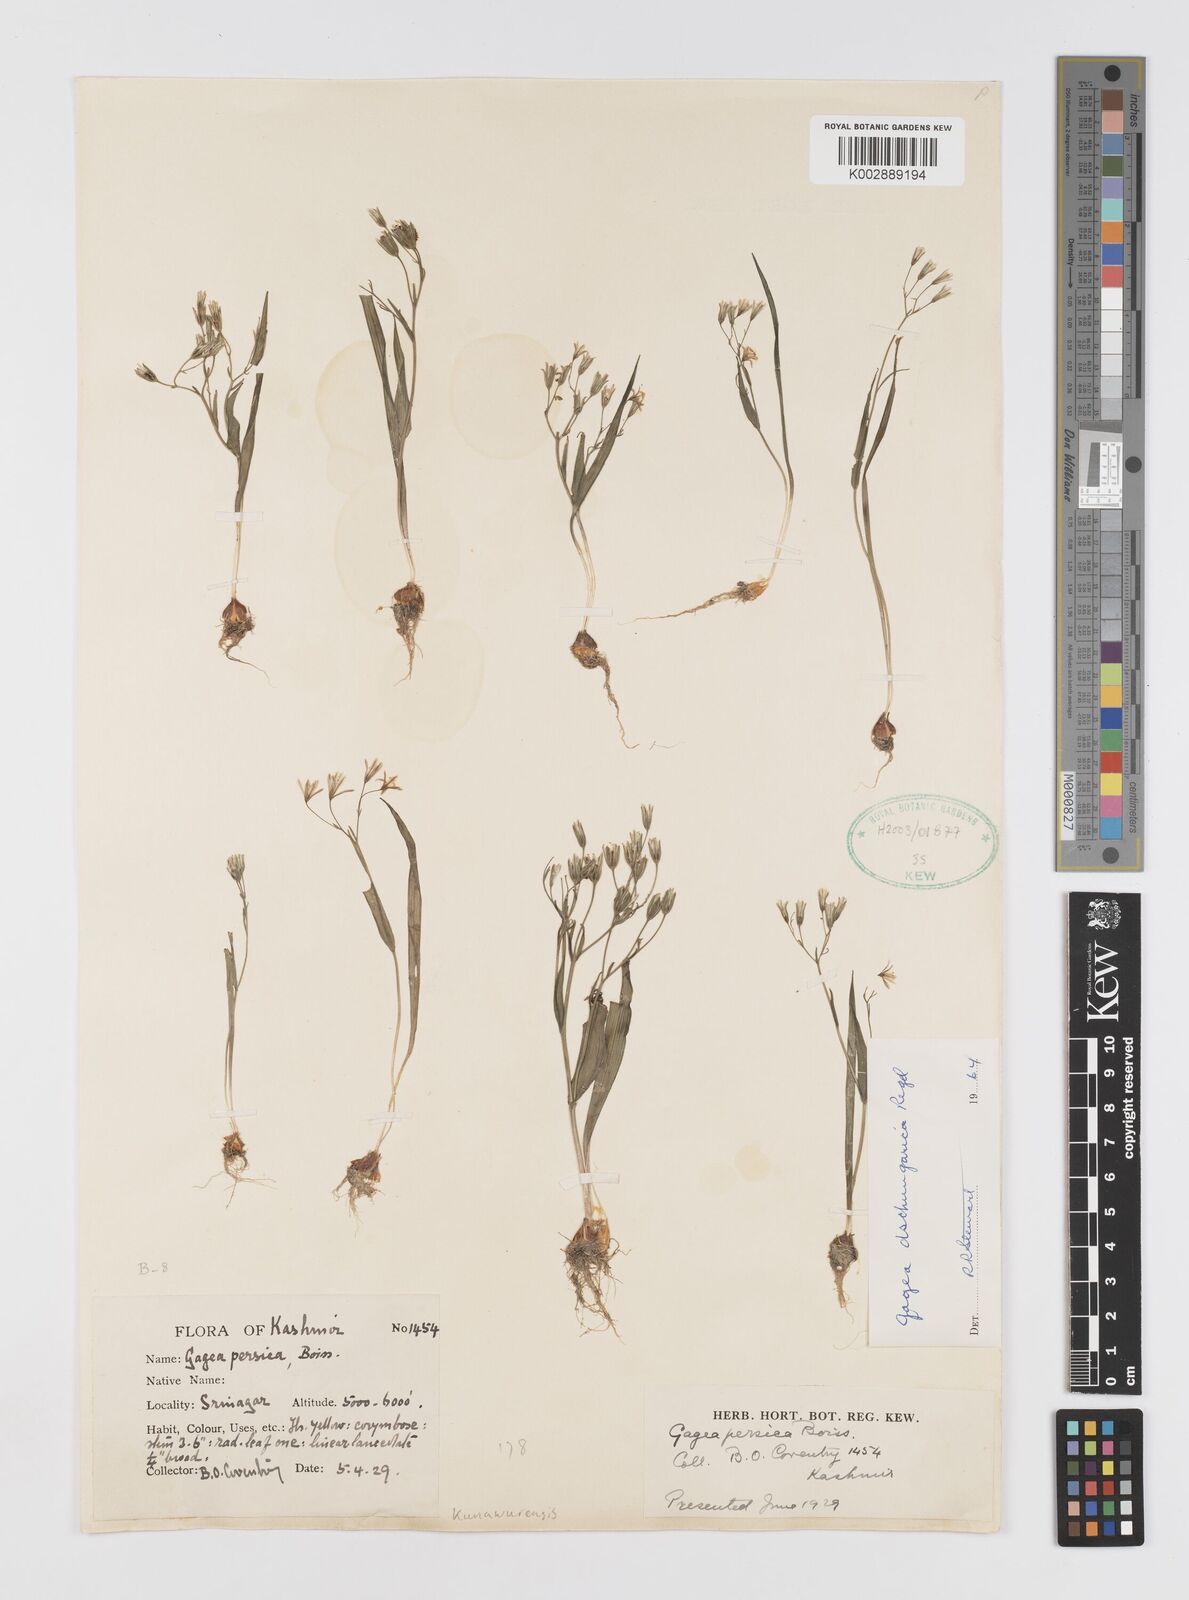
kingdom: Plantae
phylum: Tracheophyta
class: Liliopsida
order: Liliales
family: Liliaceae
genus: Gagea
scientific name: Gagea dschungarica
